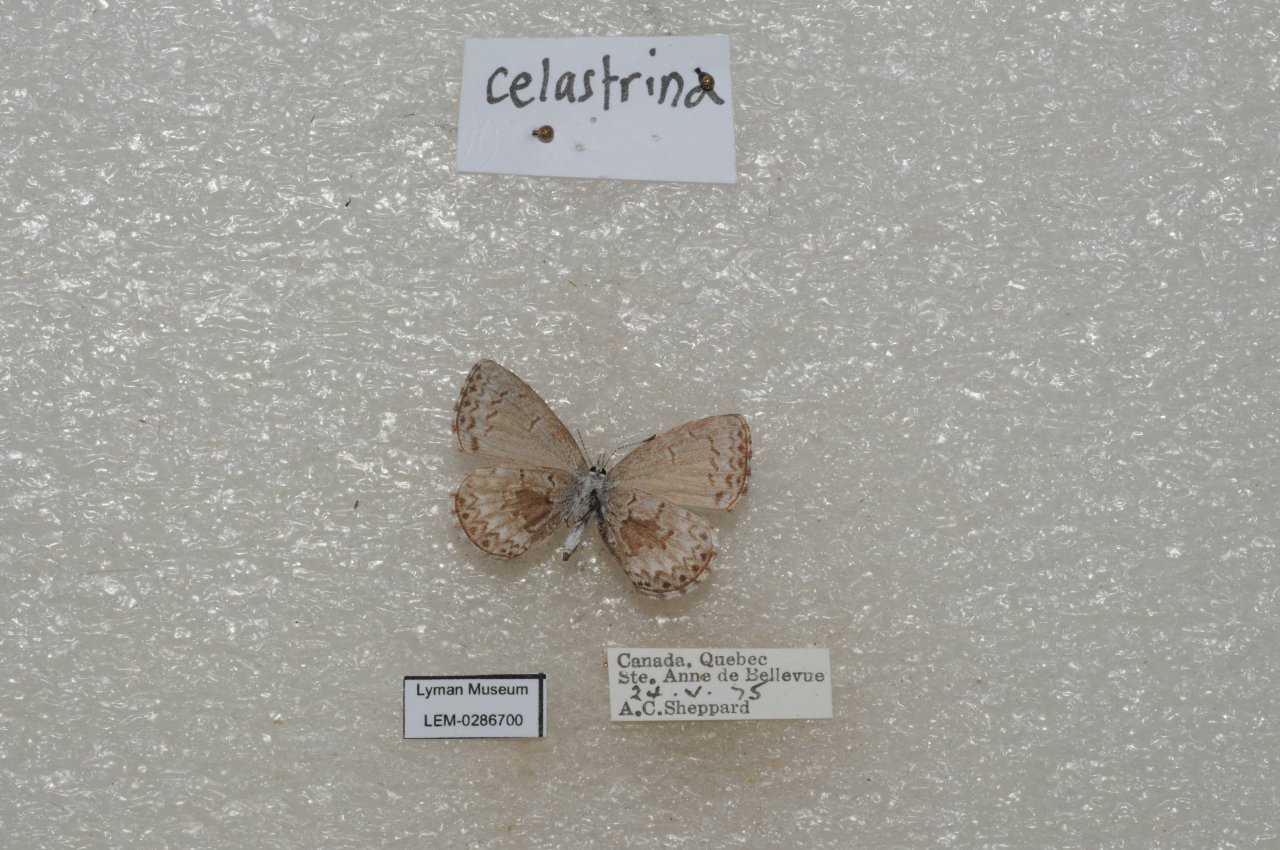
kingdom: Animalia
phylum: Arthropoda
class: Insecta
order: Lepidoptera
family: Lycaenidae
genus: Celastrina
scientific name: Celastrina lucia
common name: Northern Spring Azure
